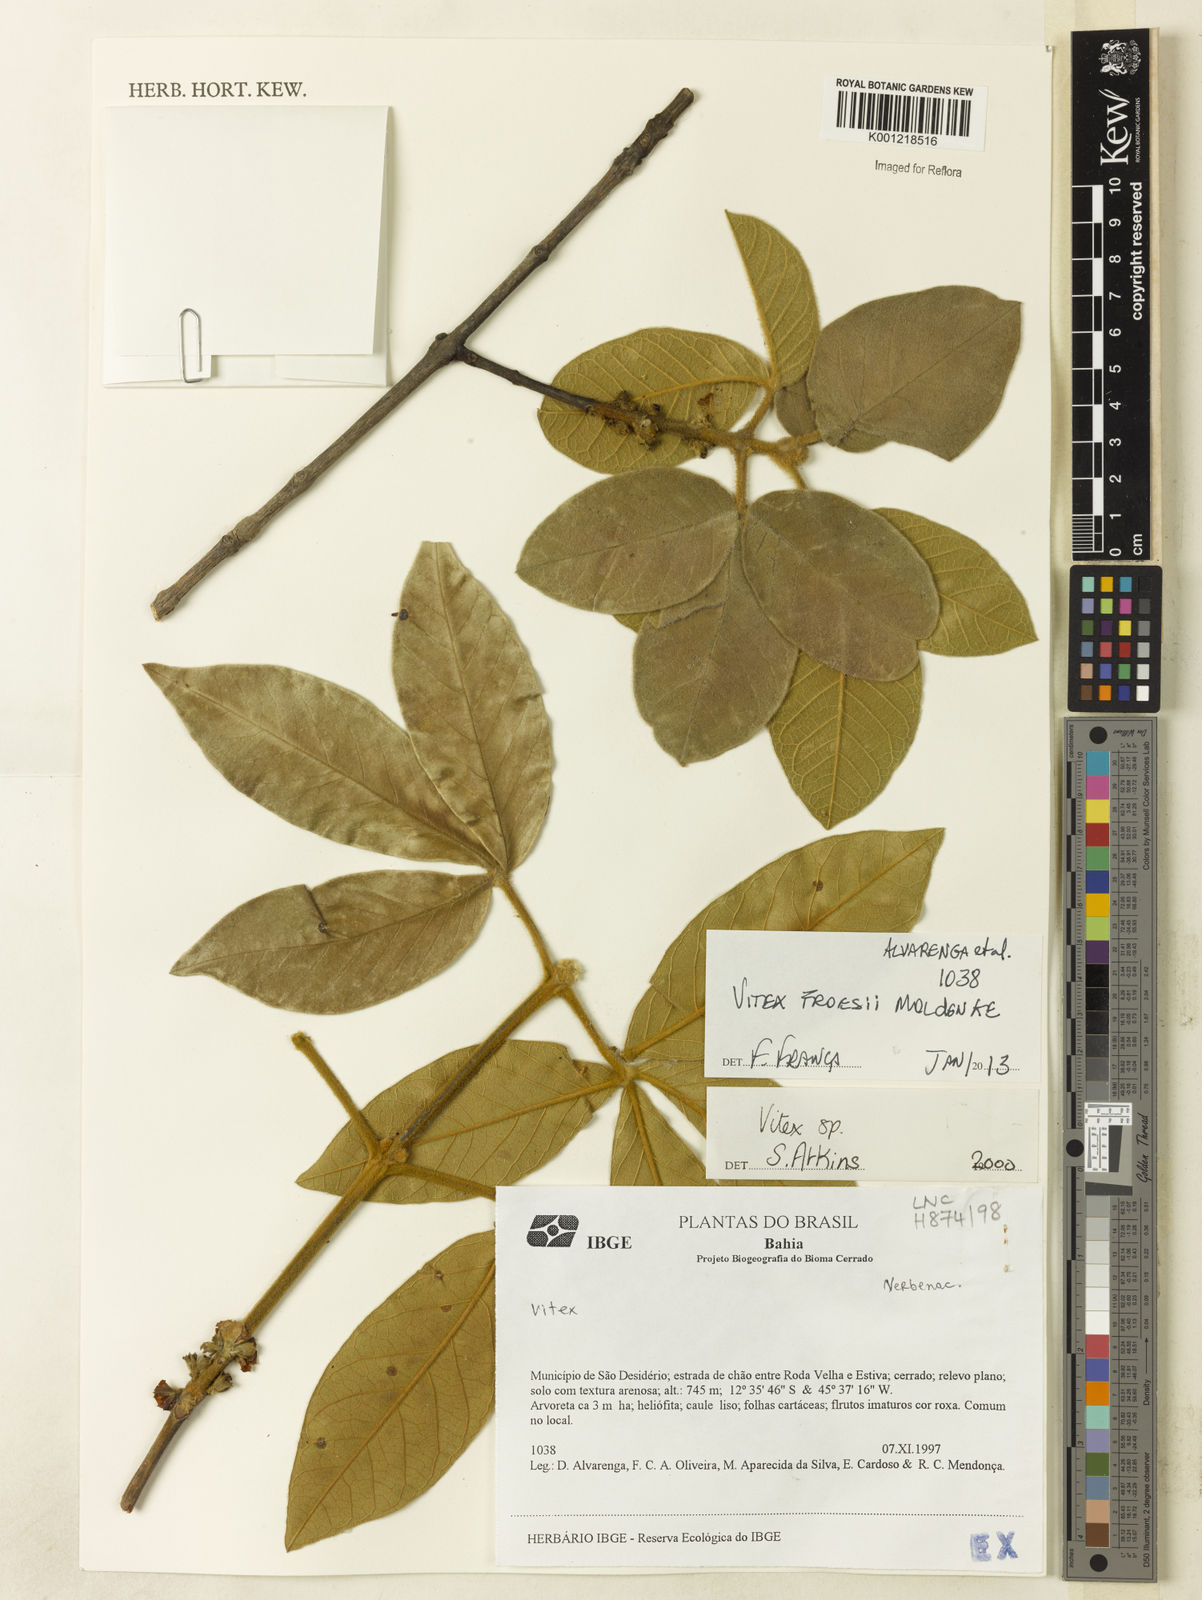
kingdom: Plantae
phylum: Tracheophyta
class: Magnoliopsida
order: Lamiales
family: Lamiaceae
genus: Vitex
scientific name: Vitex flavens
